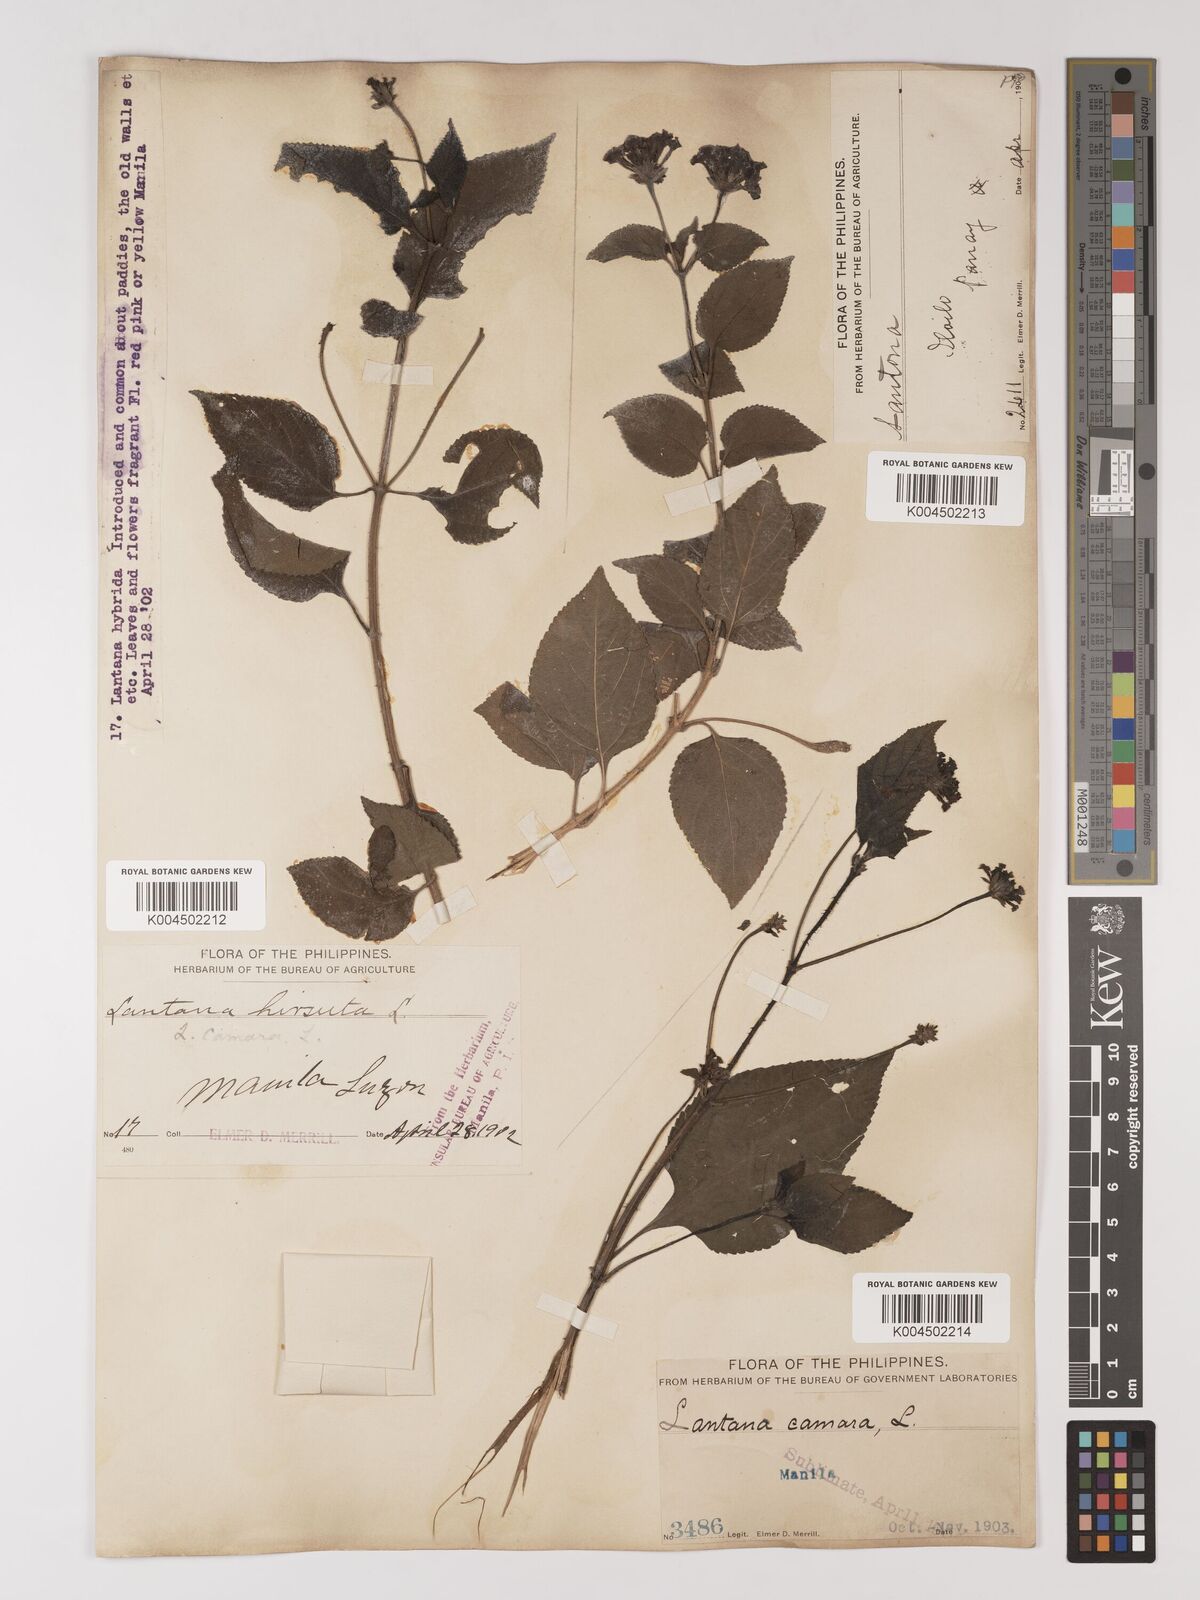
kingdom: Plantae
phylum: Tracheophyta
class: Magnoliopsida
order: Lamiales
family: Verbenaceae
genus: Lantana
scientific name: Lantana
